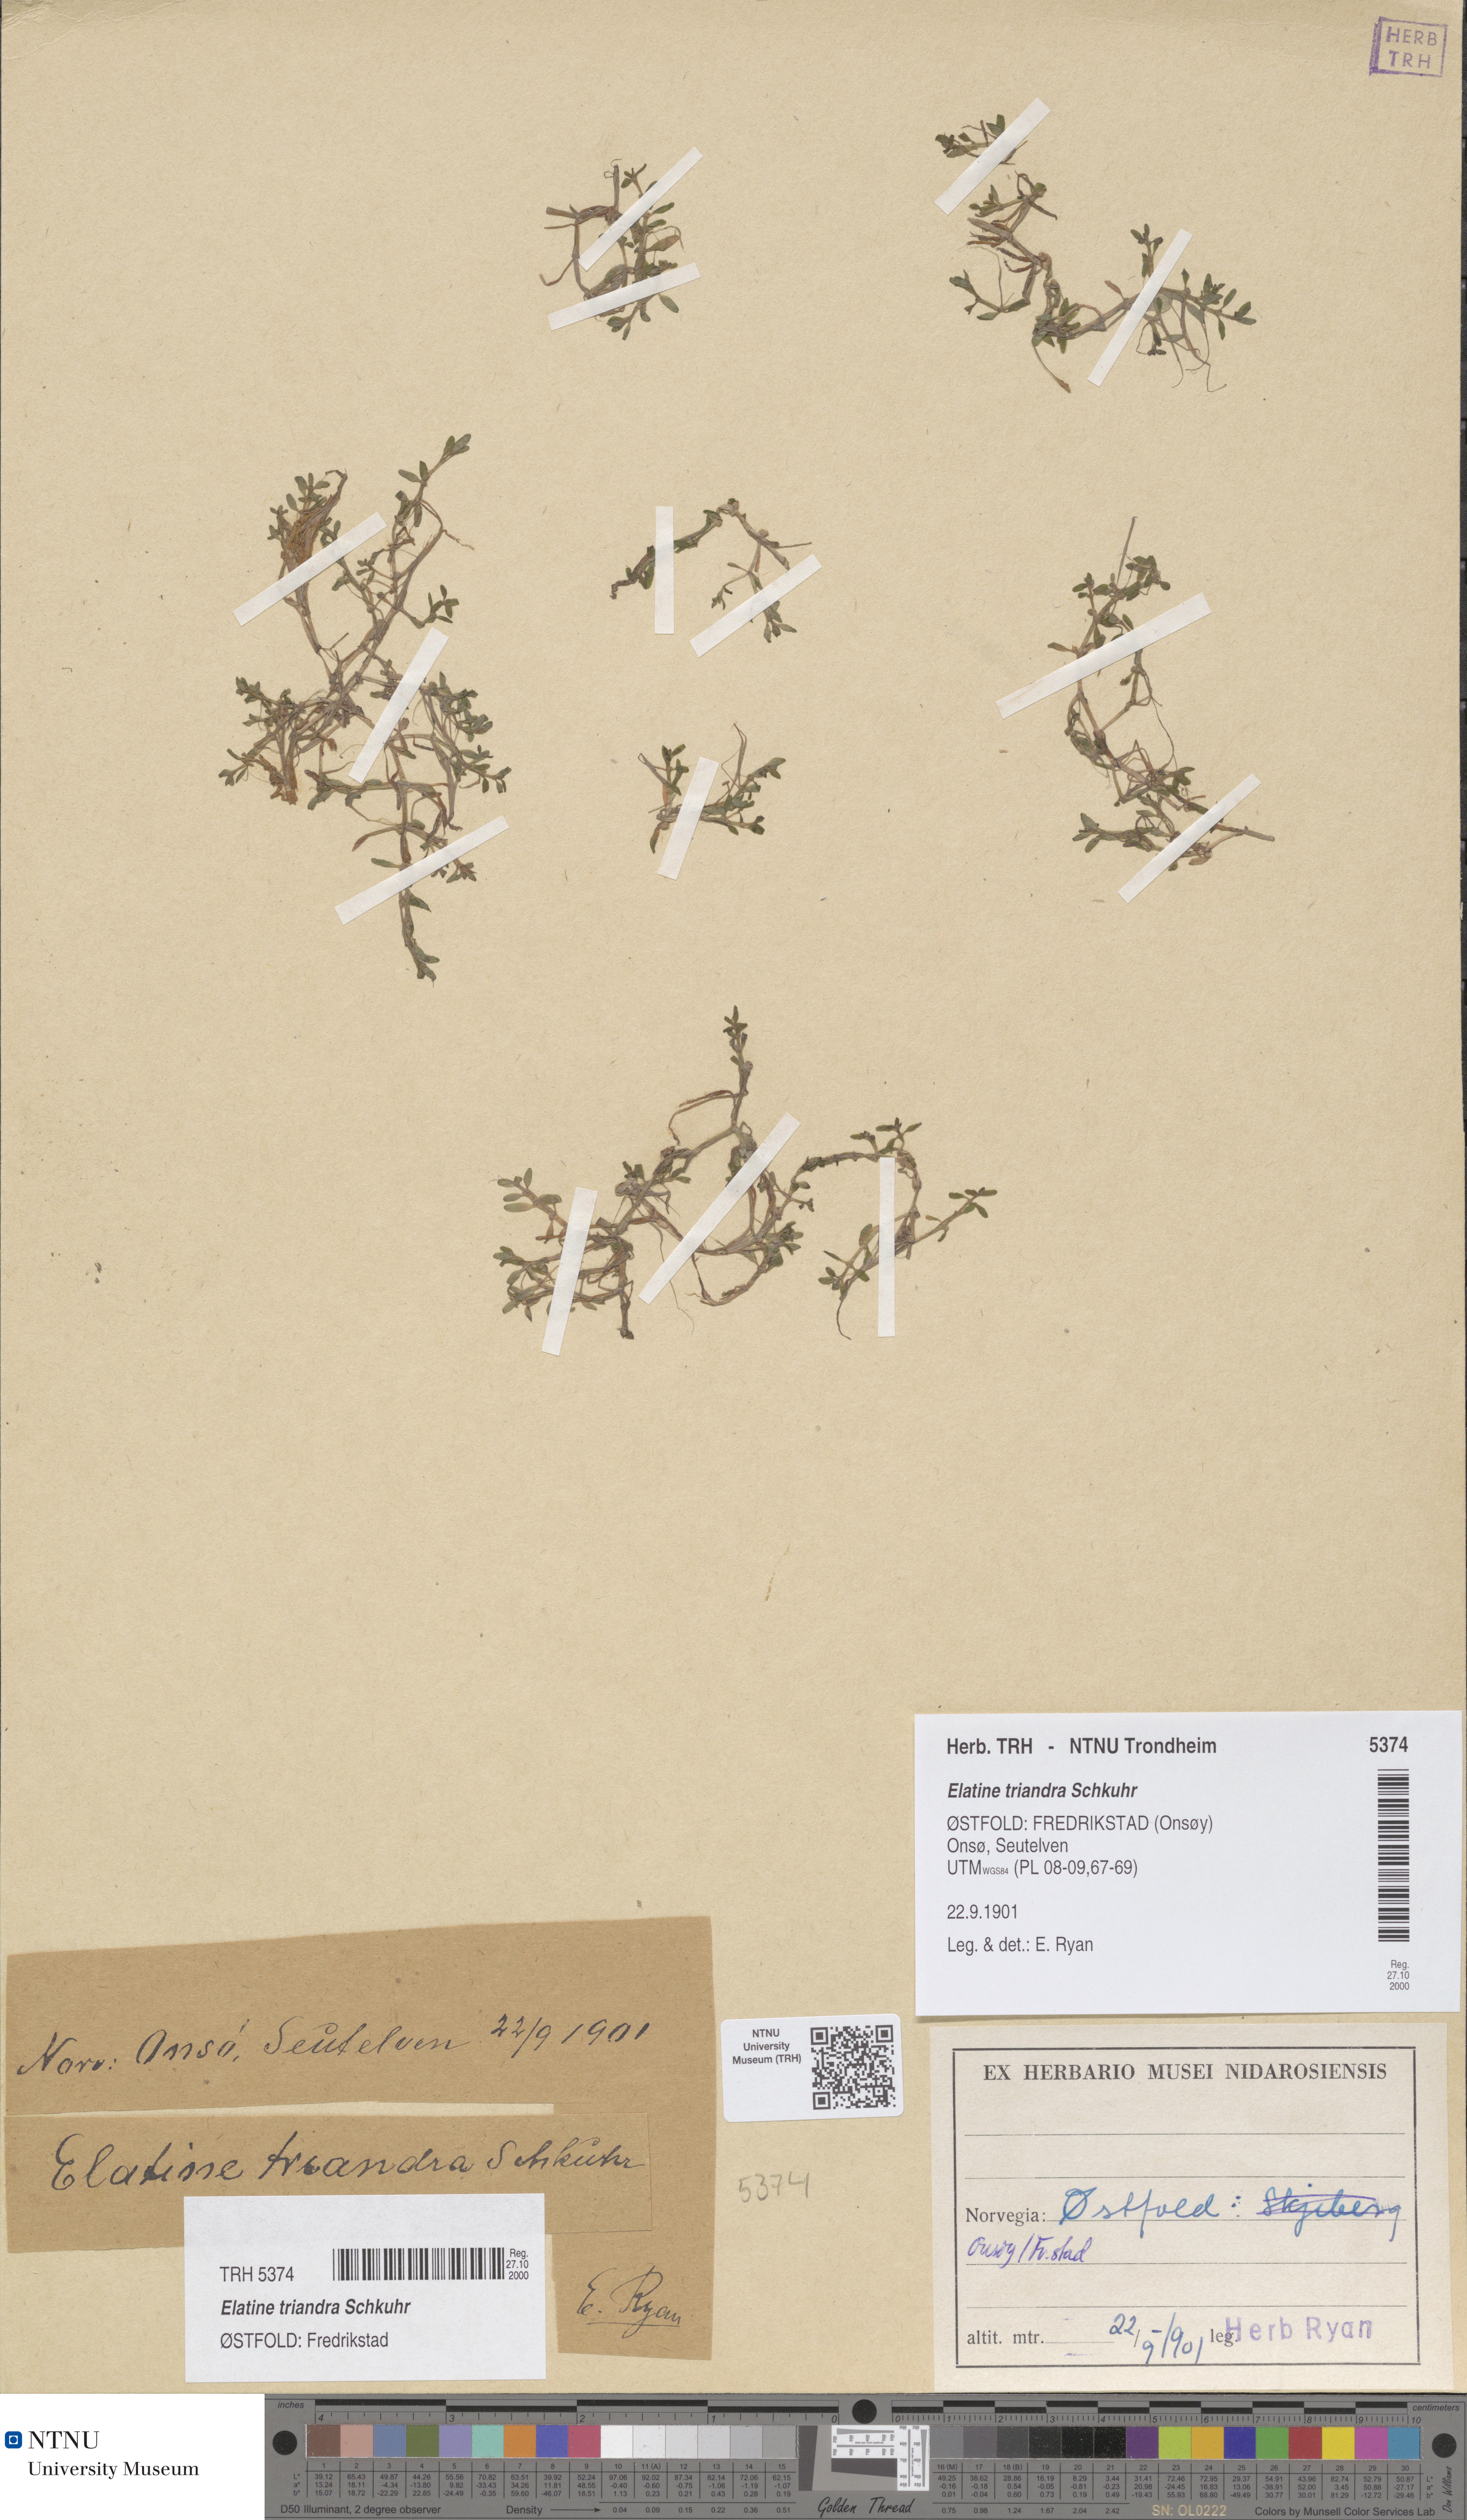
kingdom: Plantae
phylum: Tracheophyta
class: Magnoliopsida
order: Malpighiales
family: Elatinaceae
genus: Elatine
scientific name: Elatine triandra
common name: Three-stamened waterwort
